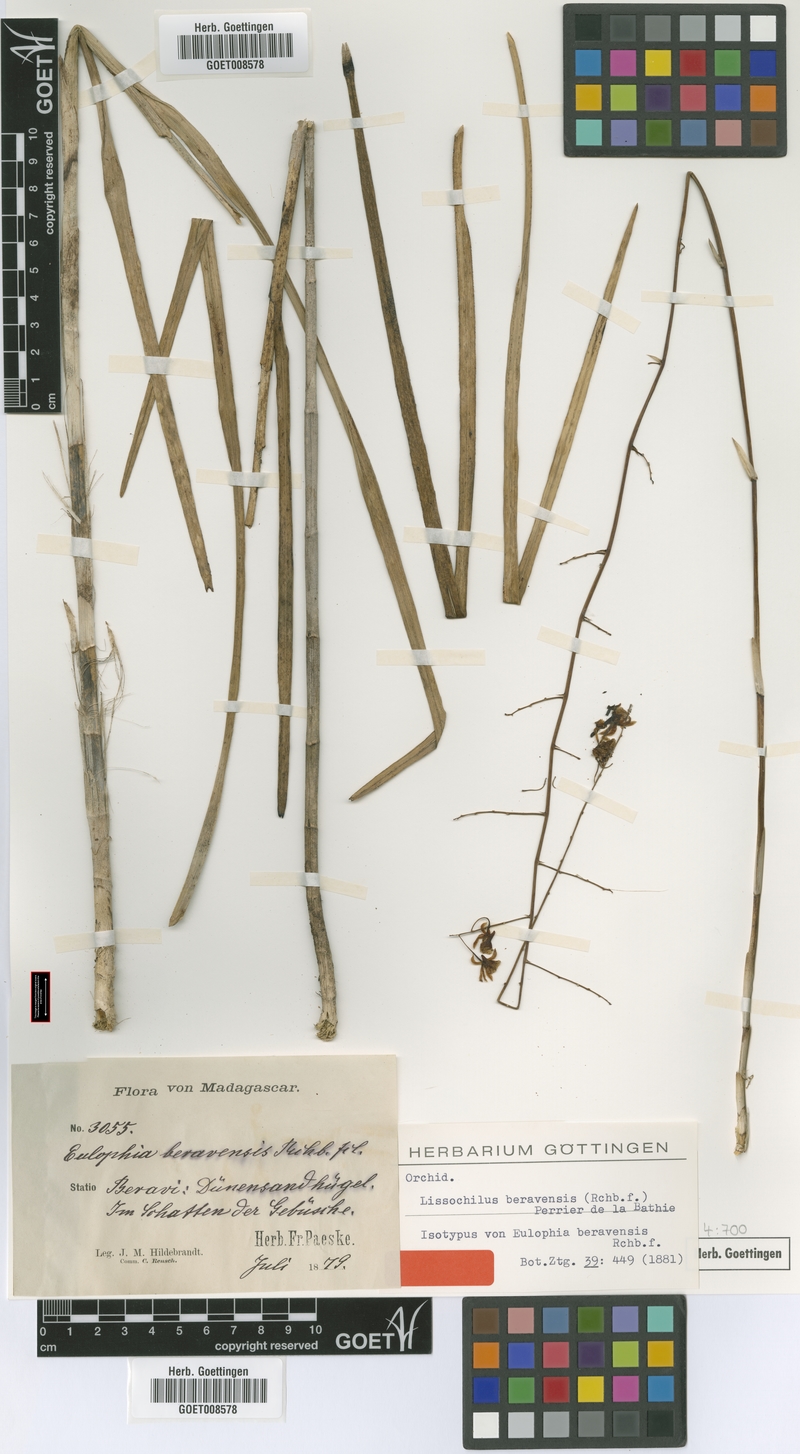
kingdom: Plantae
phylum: Tracheophyta
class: Liliopsida
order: Asparagales
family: Orchidaceae
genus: Eulophia
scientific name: Eulophia beravensis
